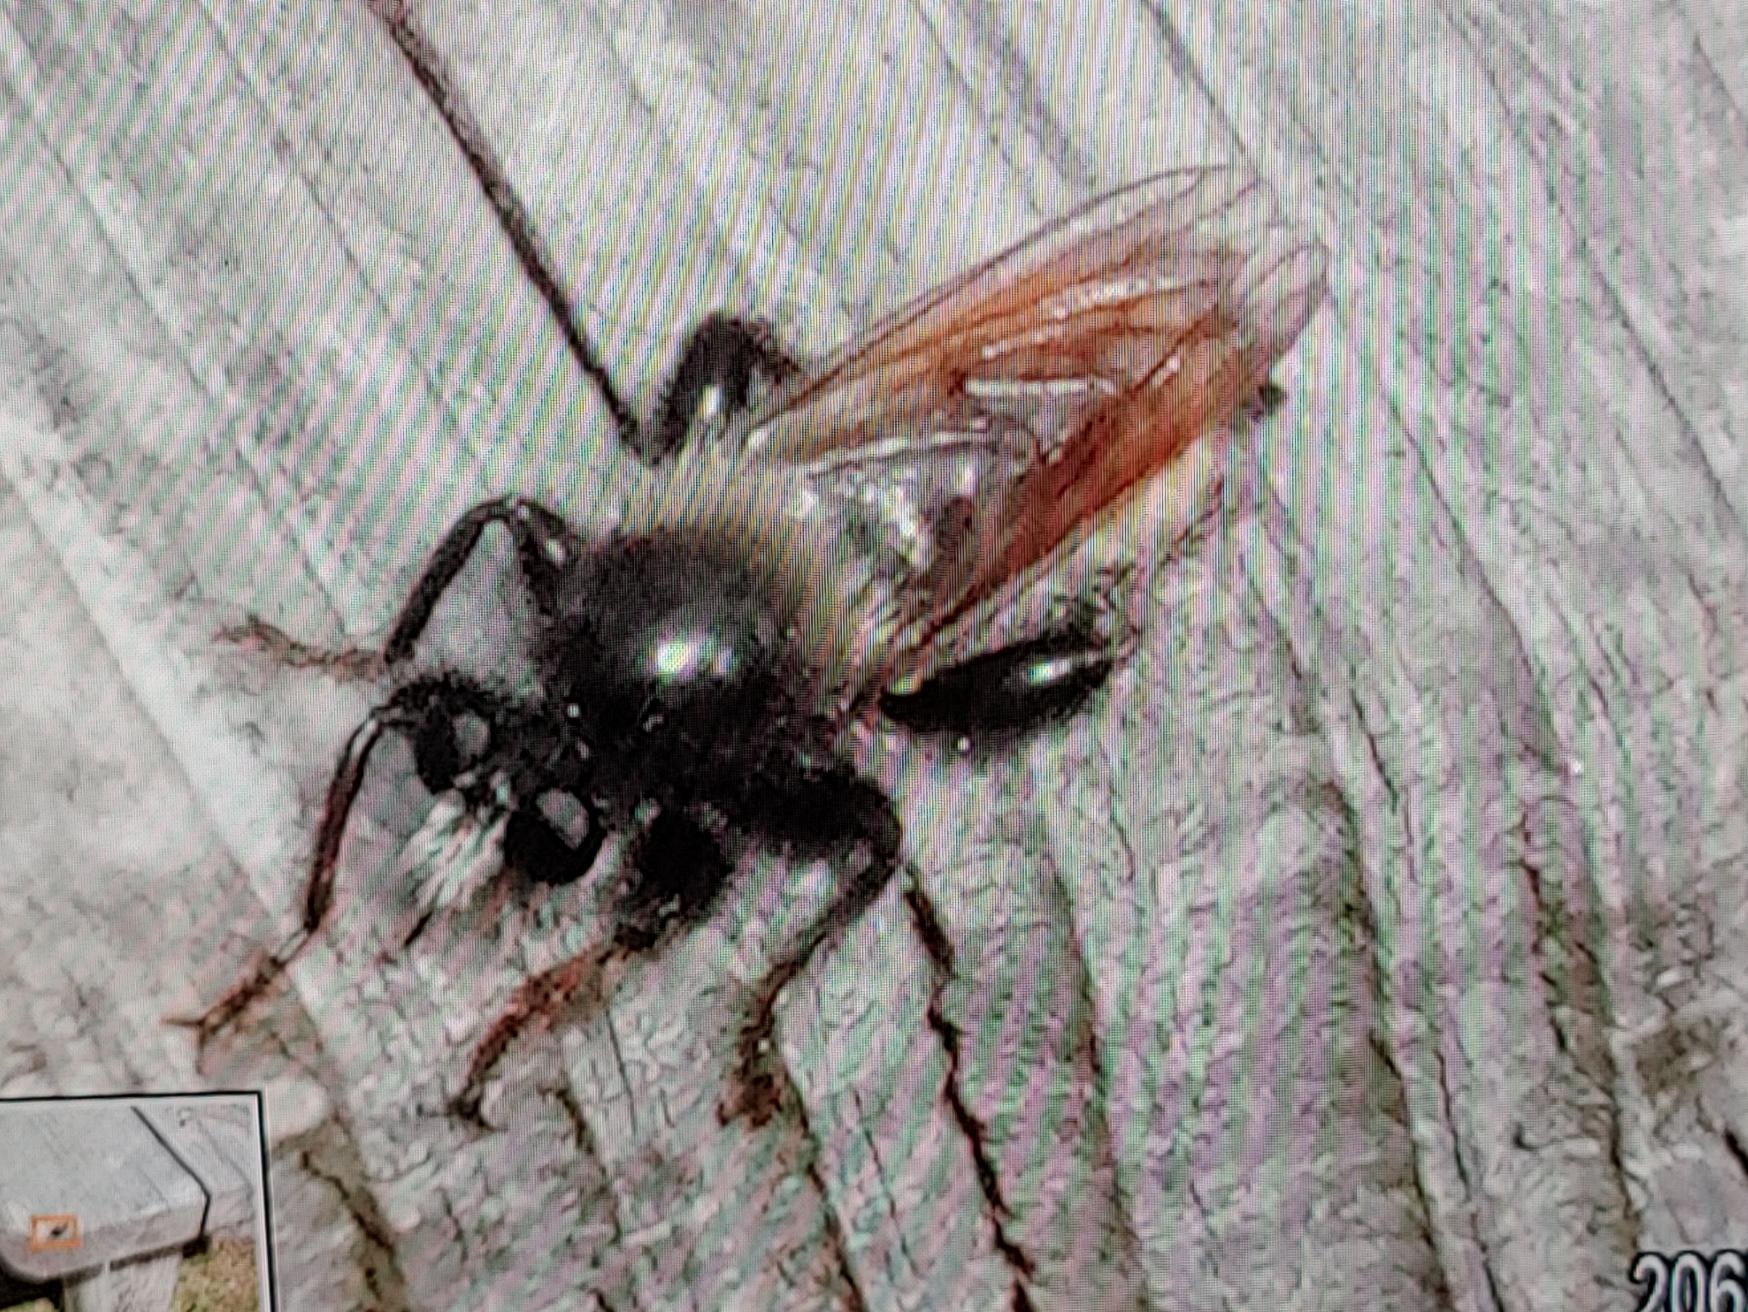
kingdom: Animalia
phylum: Arthropoda
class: Insecta
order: Diptera
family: Asilidae
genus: Laphria
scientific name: Laphria flava
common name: Gul vedrovflue
